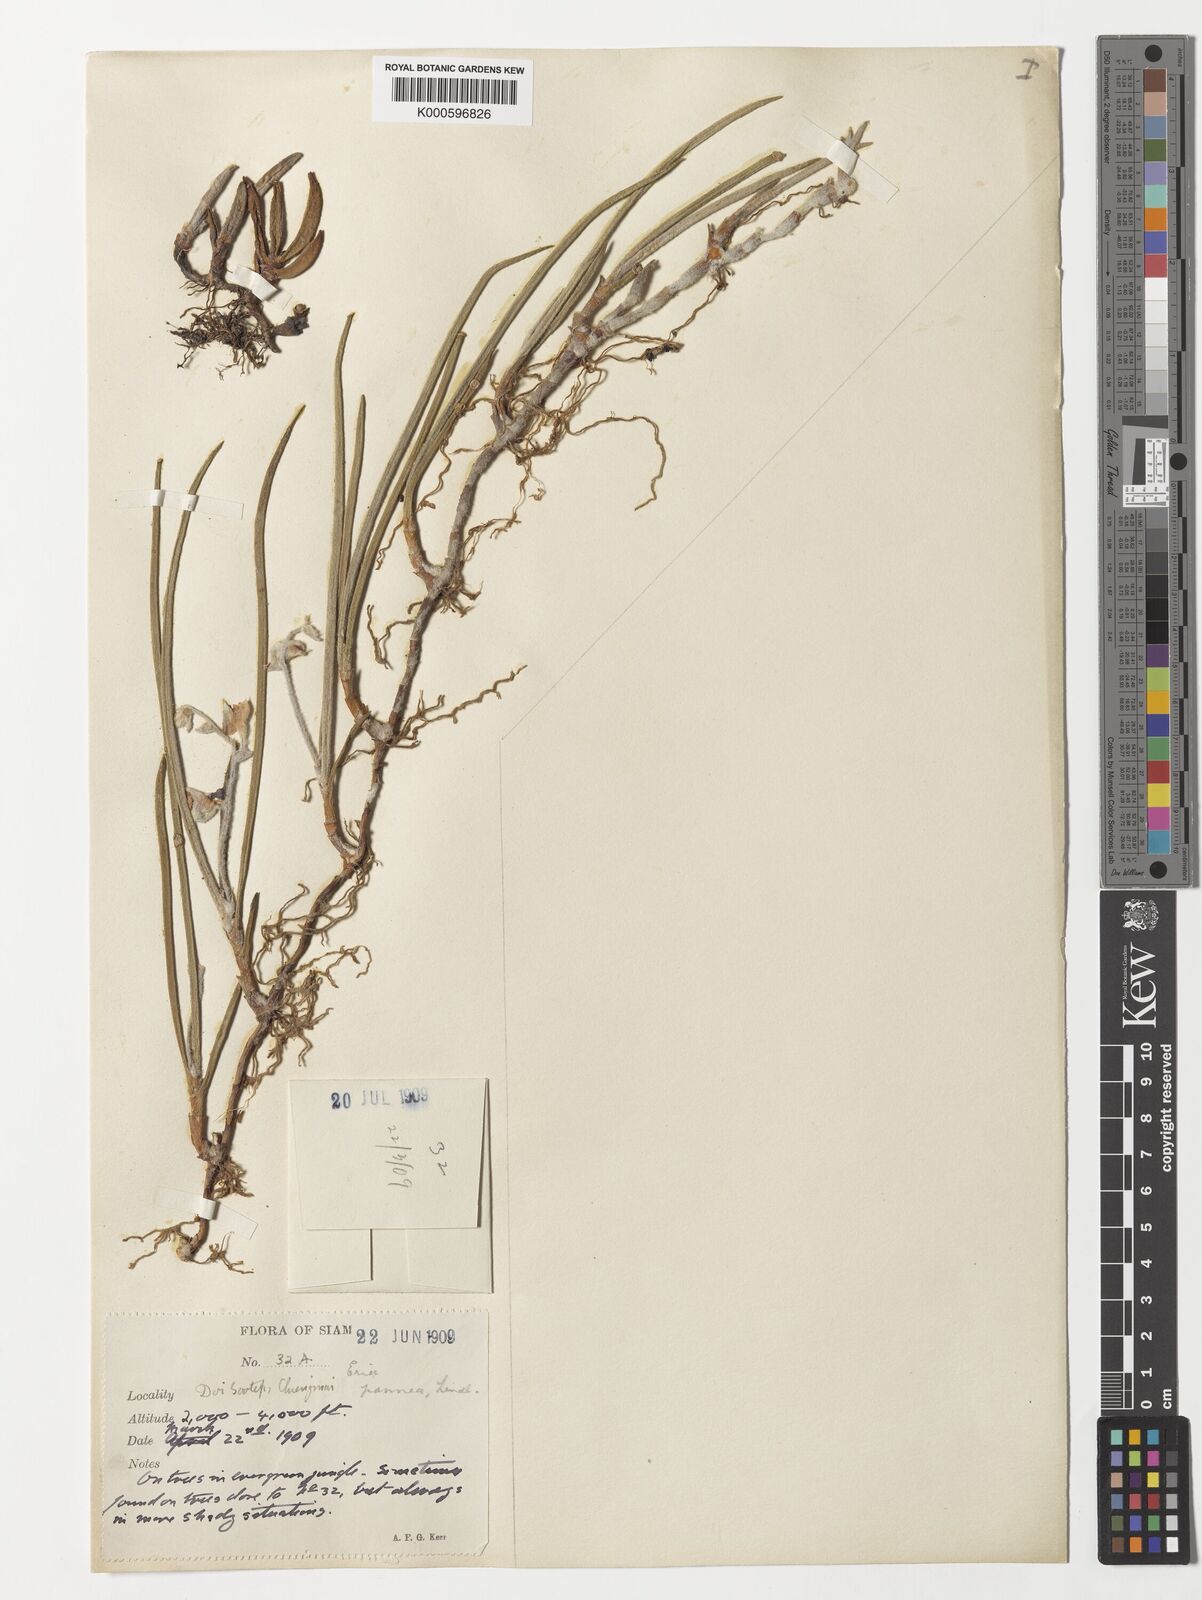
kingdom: Plantae
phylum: Tracheophyta
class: Liliopsida
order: Asparagales
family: Orchidaceae
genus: Strongyleria
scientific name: Strongyleria pannea
